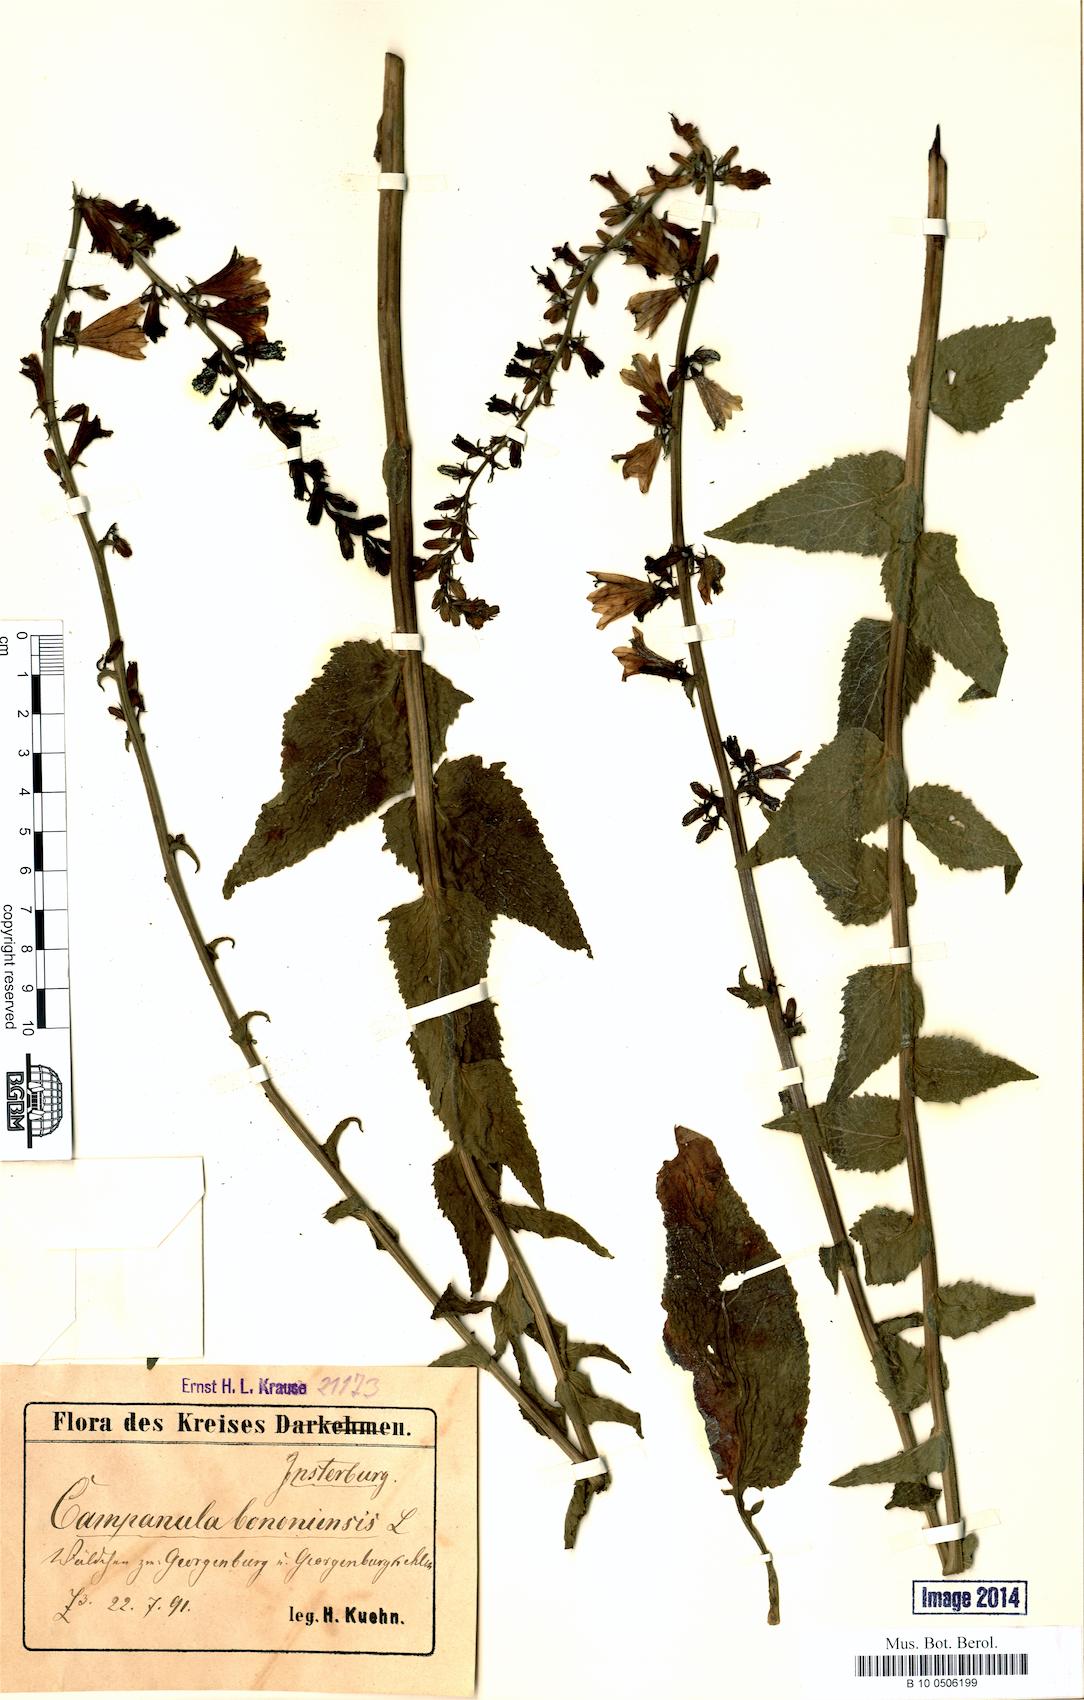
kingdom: Plantae
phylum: Tracheophyta
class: Magnoliopsida
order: Asterales
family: Campanulaceae
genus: Campanula
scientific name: Campanula bononiensis
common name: Pale bellflower
